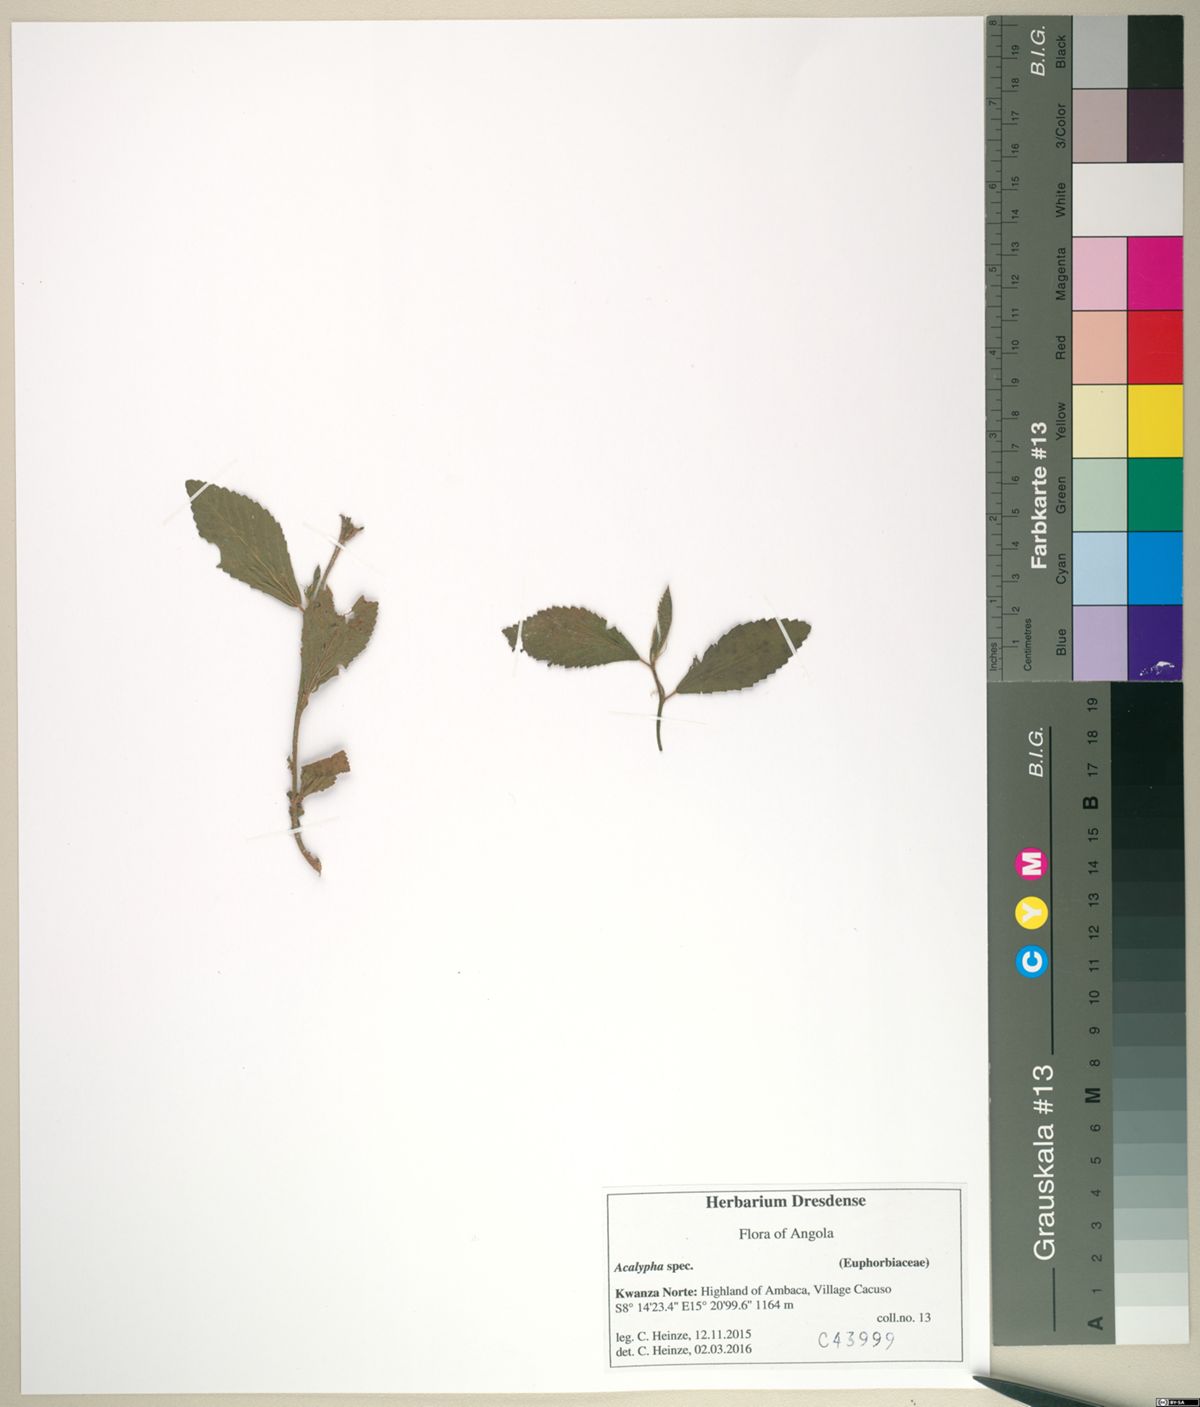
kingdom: Plantae
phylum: Tracheophyta
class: Magnoliopsida
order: Malpighiales
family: Euphorbiaceae
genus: Acalypha
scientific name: Acalypha
